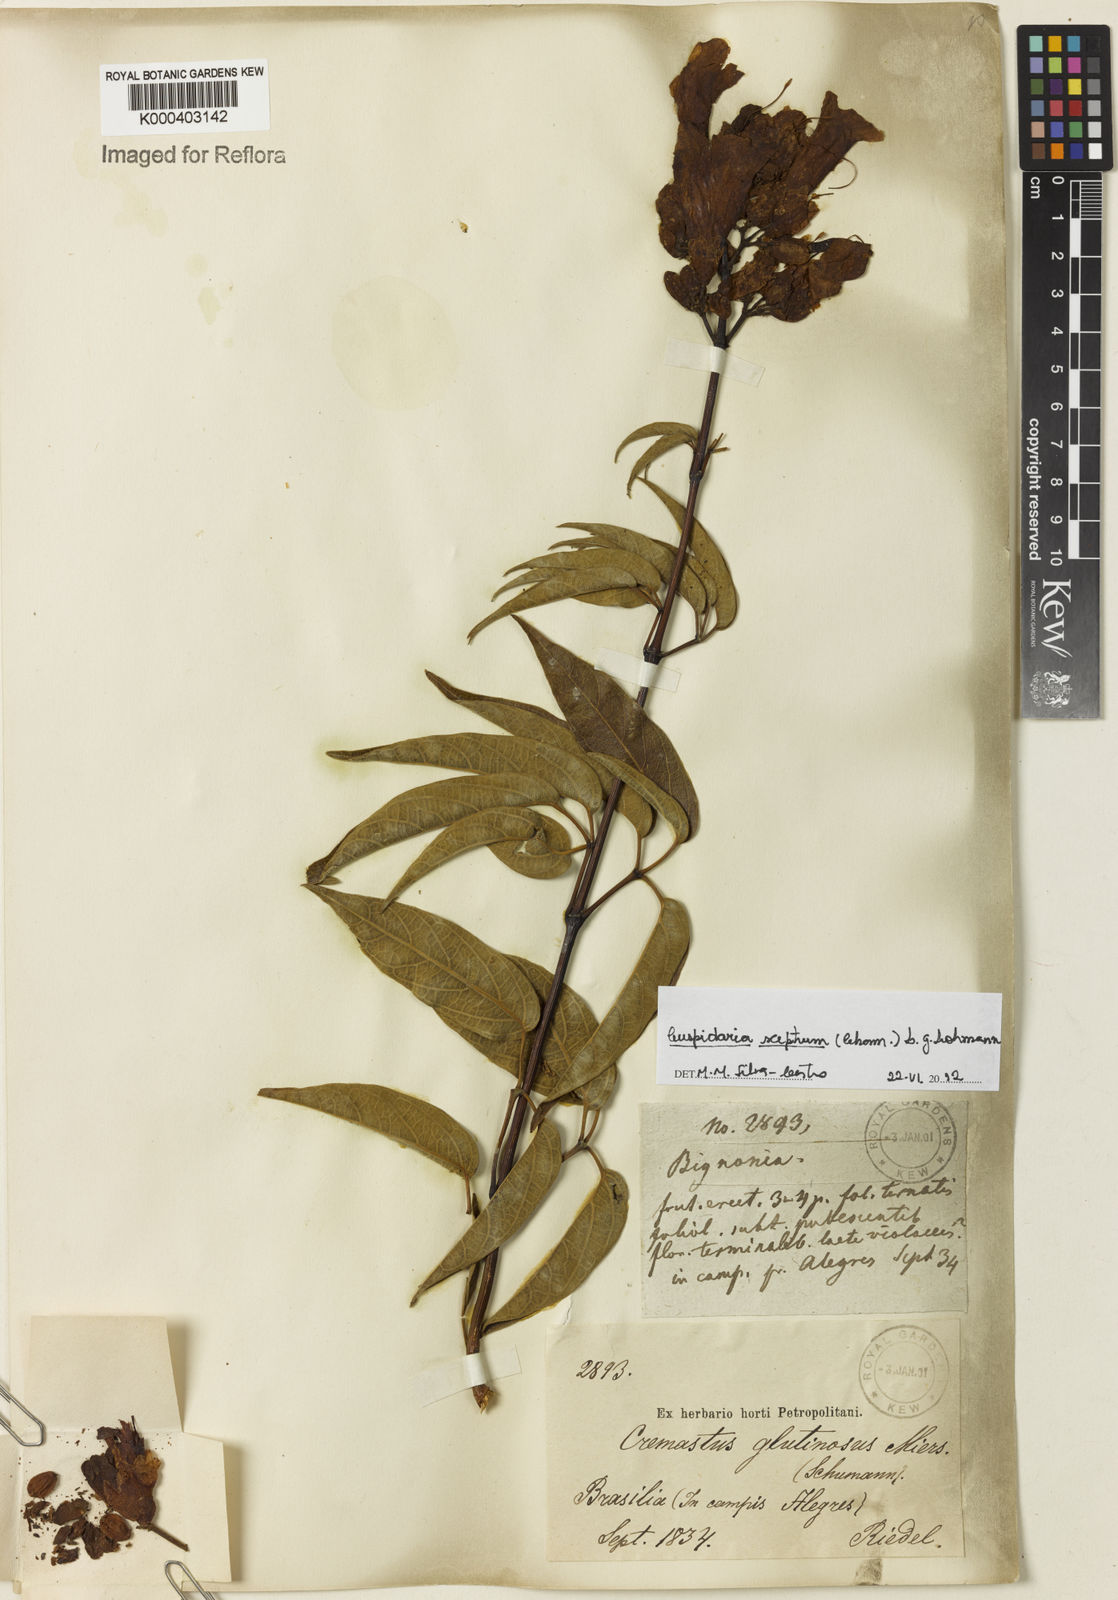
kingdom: Plantae
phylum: Tracheophyta
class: Magnoliopsida
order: Lamiales
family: Bignoniaceae
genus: Cuspidaria
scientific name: Cuspidaria sceptrum
